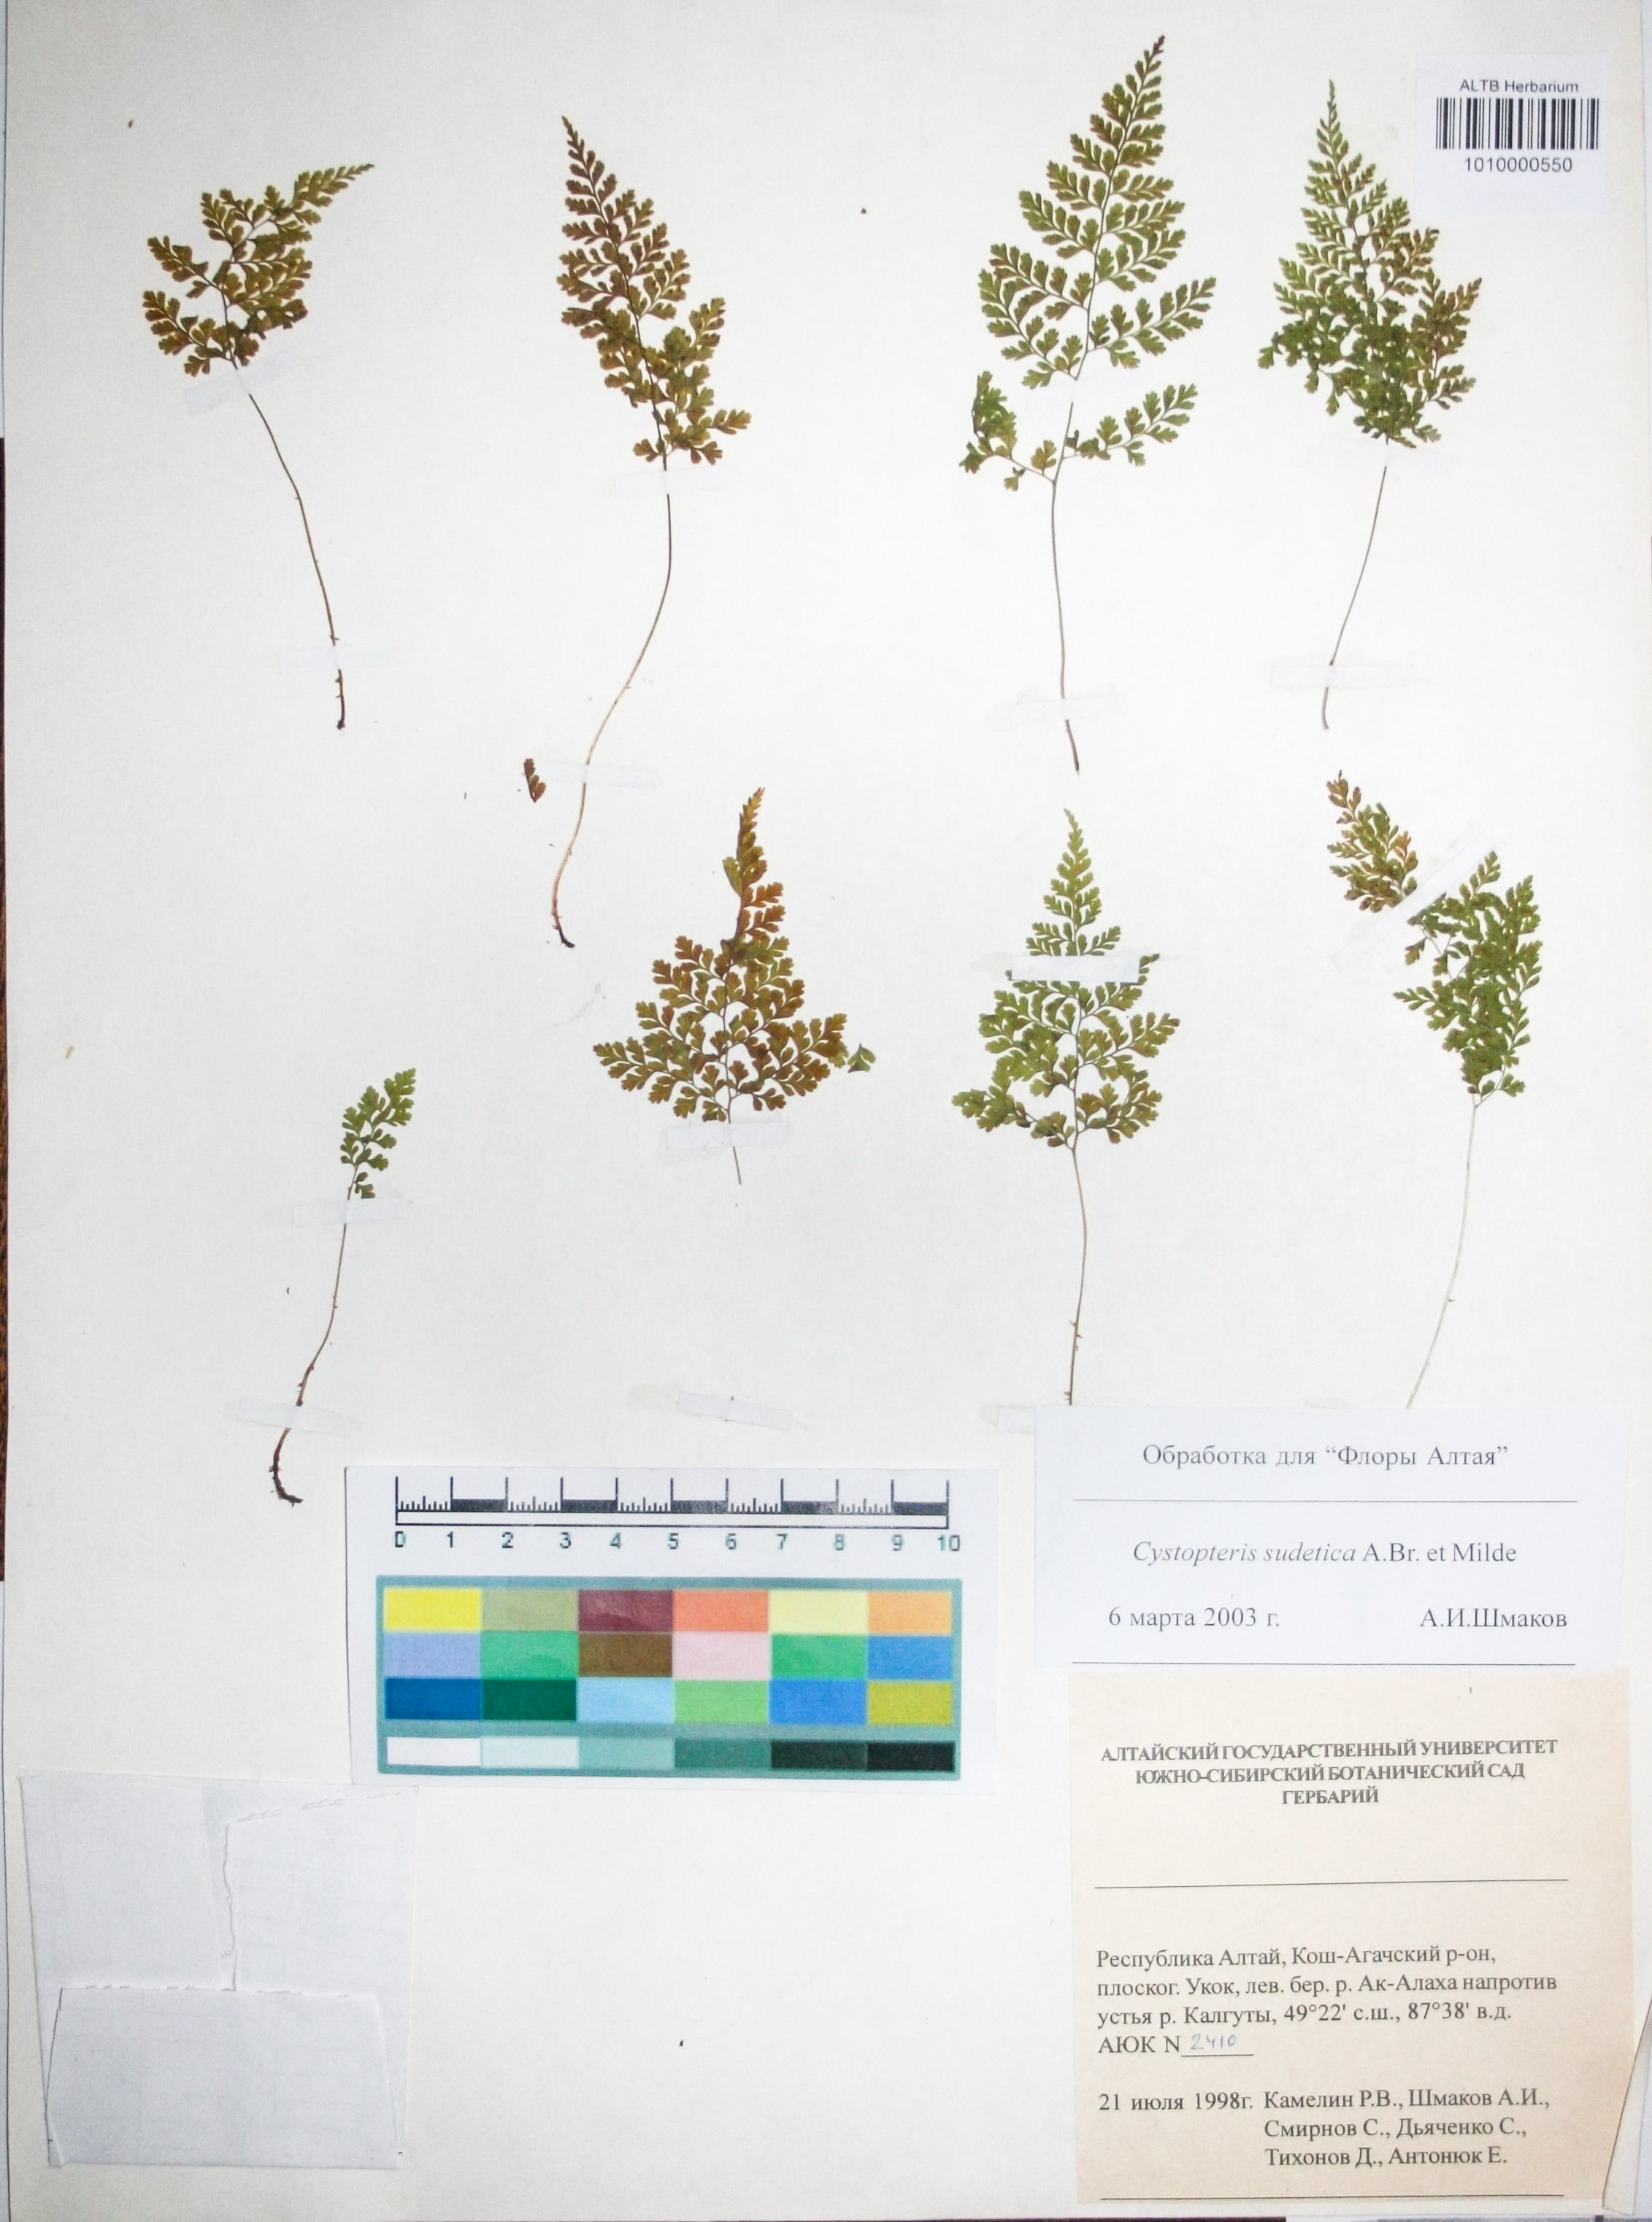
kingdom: Plantae
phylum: Tracheophyta
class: Polypodiopsida
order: Polypodiales
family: Cystopteridaceae
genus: Cystopteris
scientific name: Cystopteris sudetica
